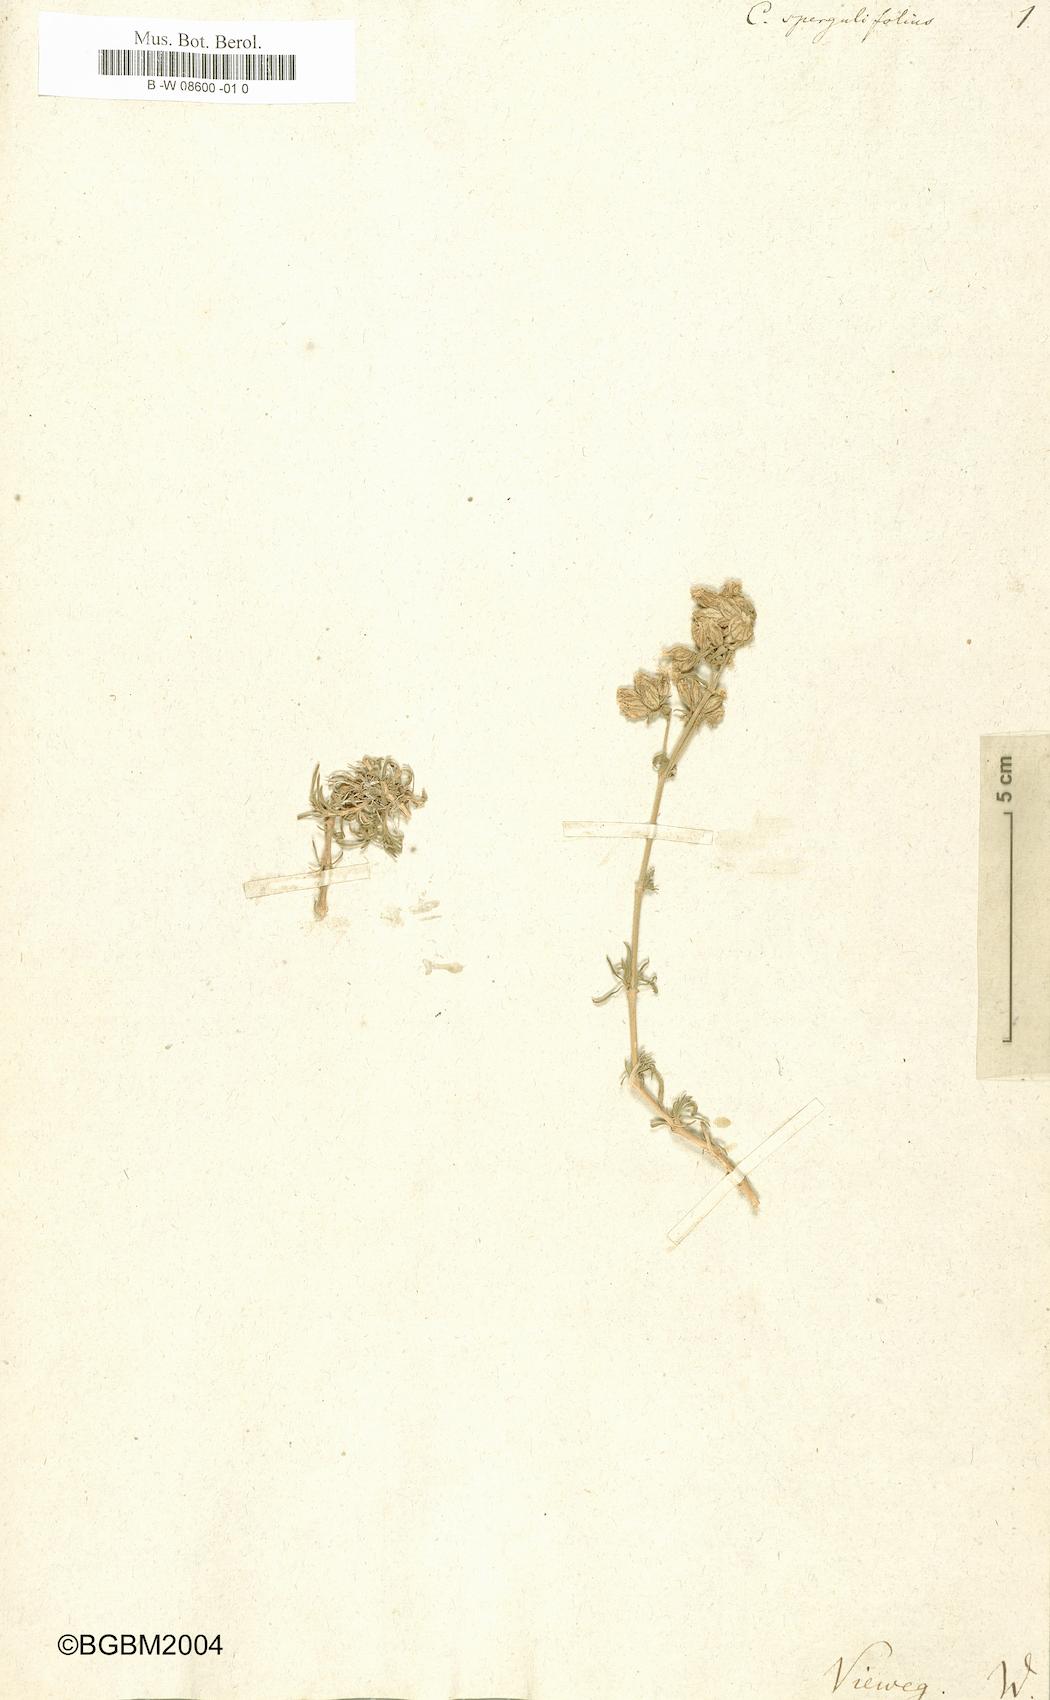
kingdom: Plantae
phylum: Tracheophyta
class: Magnoliopsida
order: Caryophyllales
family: Caryophyllaceae
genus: Silene
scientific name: Silene spergulifolia
